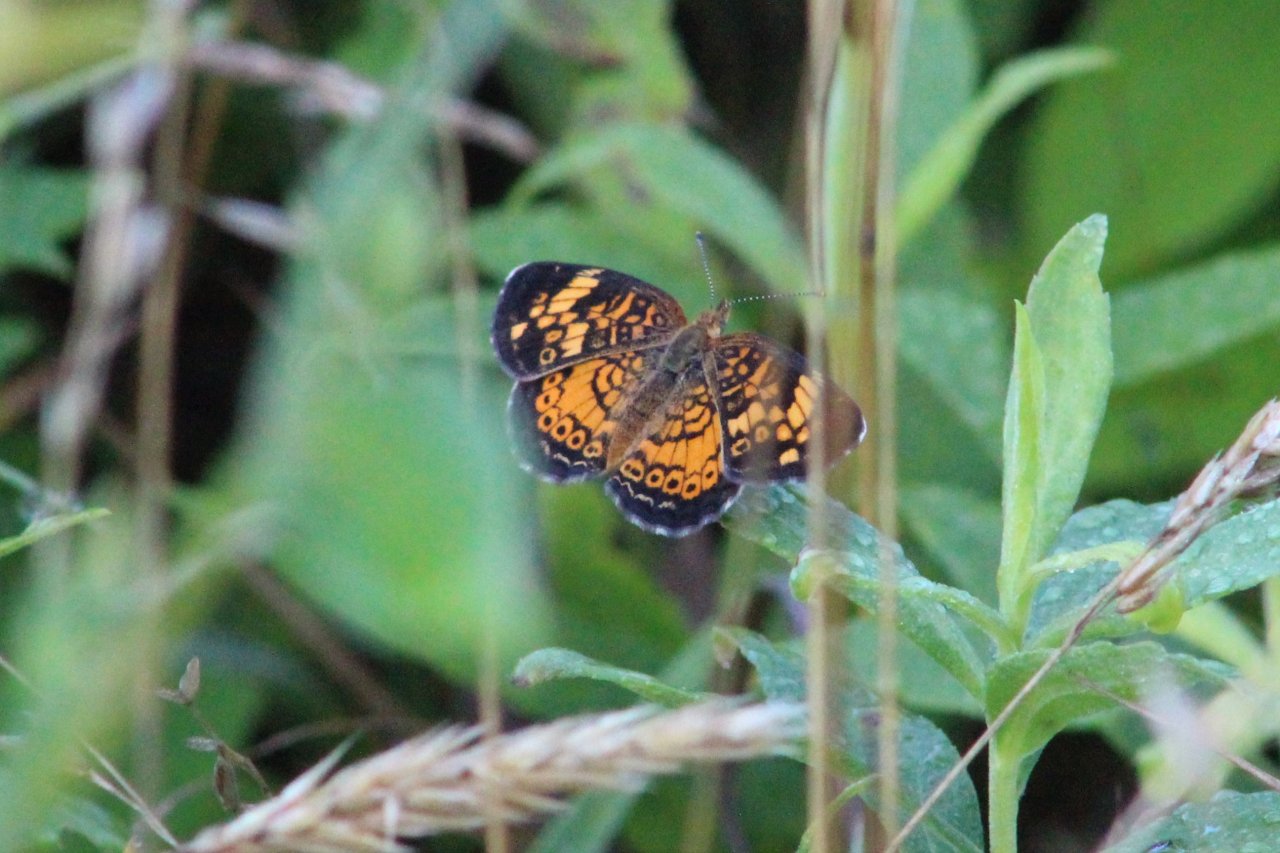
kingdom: Animalia
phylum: Arthropoda
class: Insecta
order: Lepidoptera
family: Nymphalidae
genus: Phyciodes
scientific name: Phyciodes tharos
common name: Pearl Crescent
